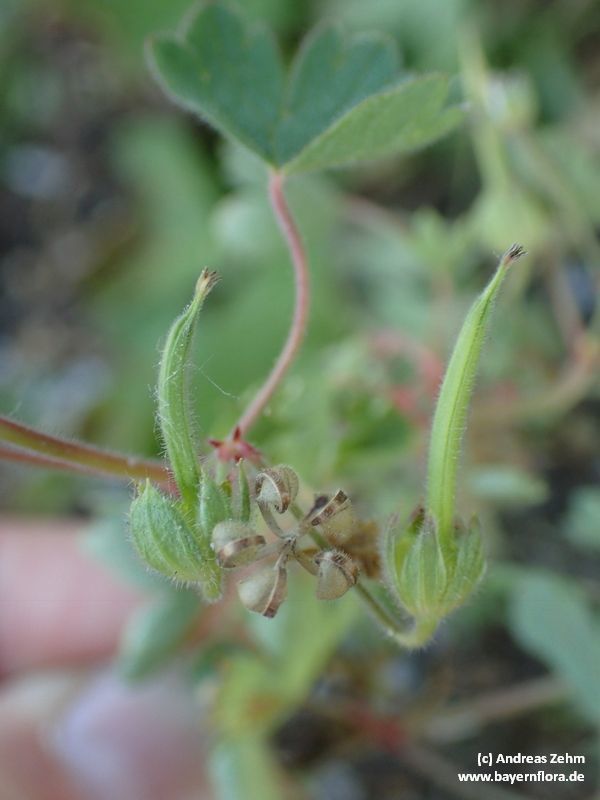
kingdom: Plantae
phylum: Tracheophyta
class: Magnoliopsida
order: Geraniales
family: Geraniaceae
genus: Geranium
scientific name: Geranium rotundifolium
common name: Round-leaved crane's-bill
